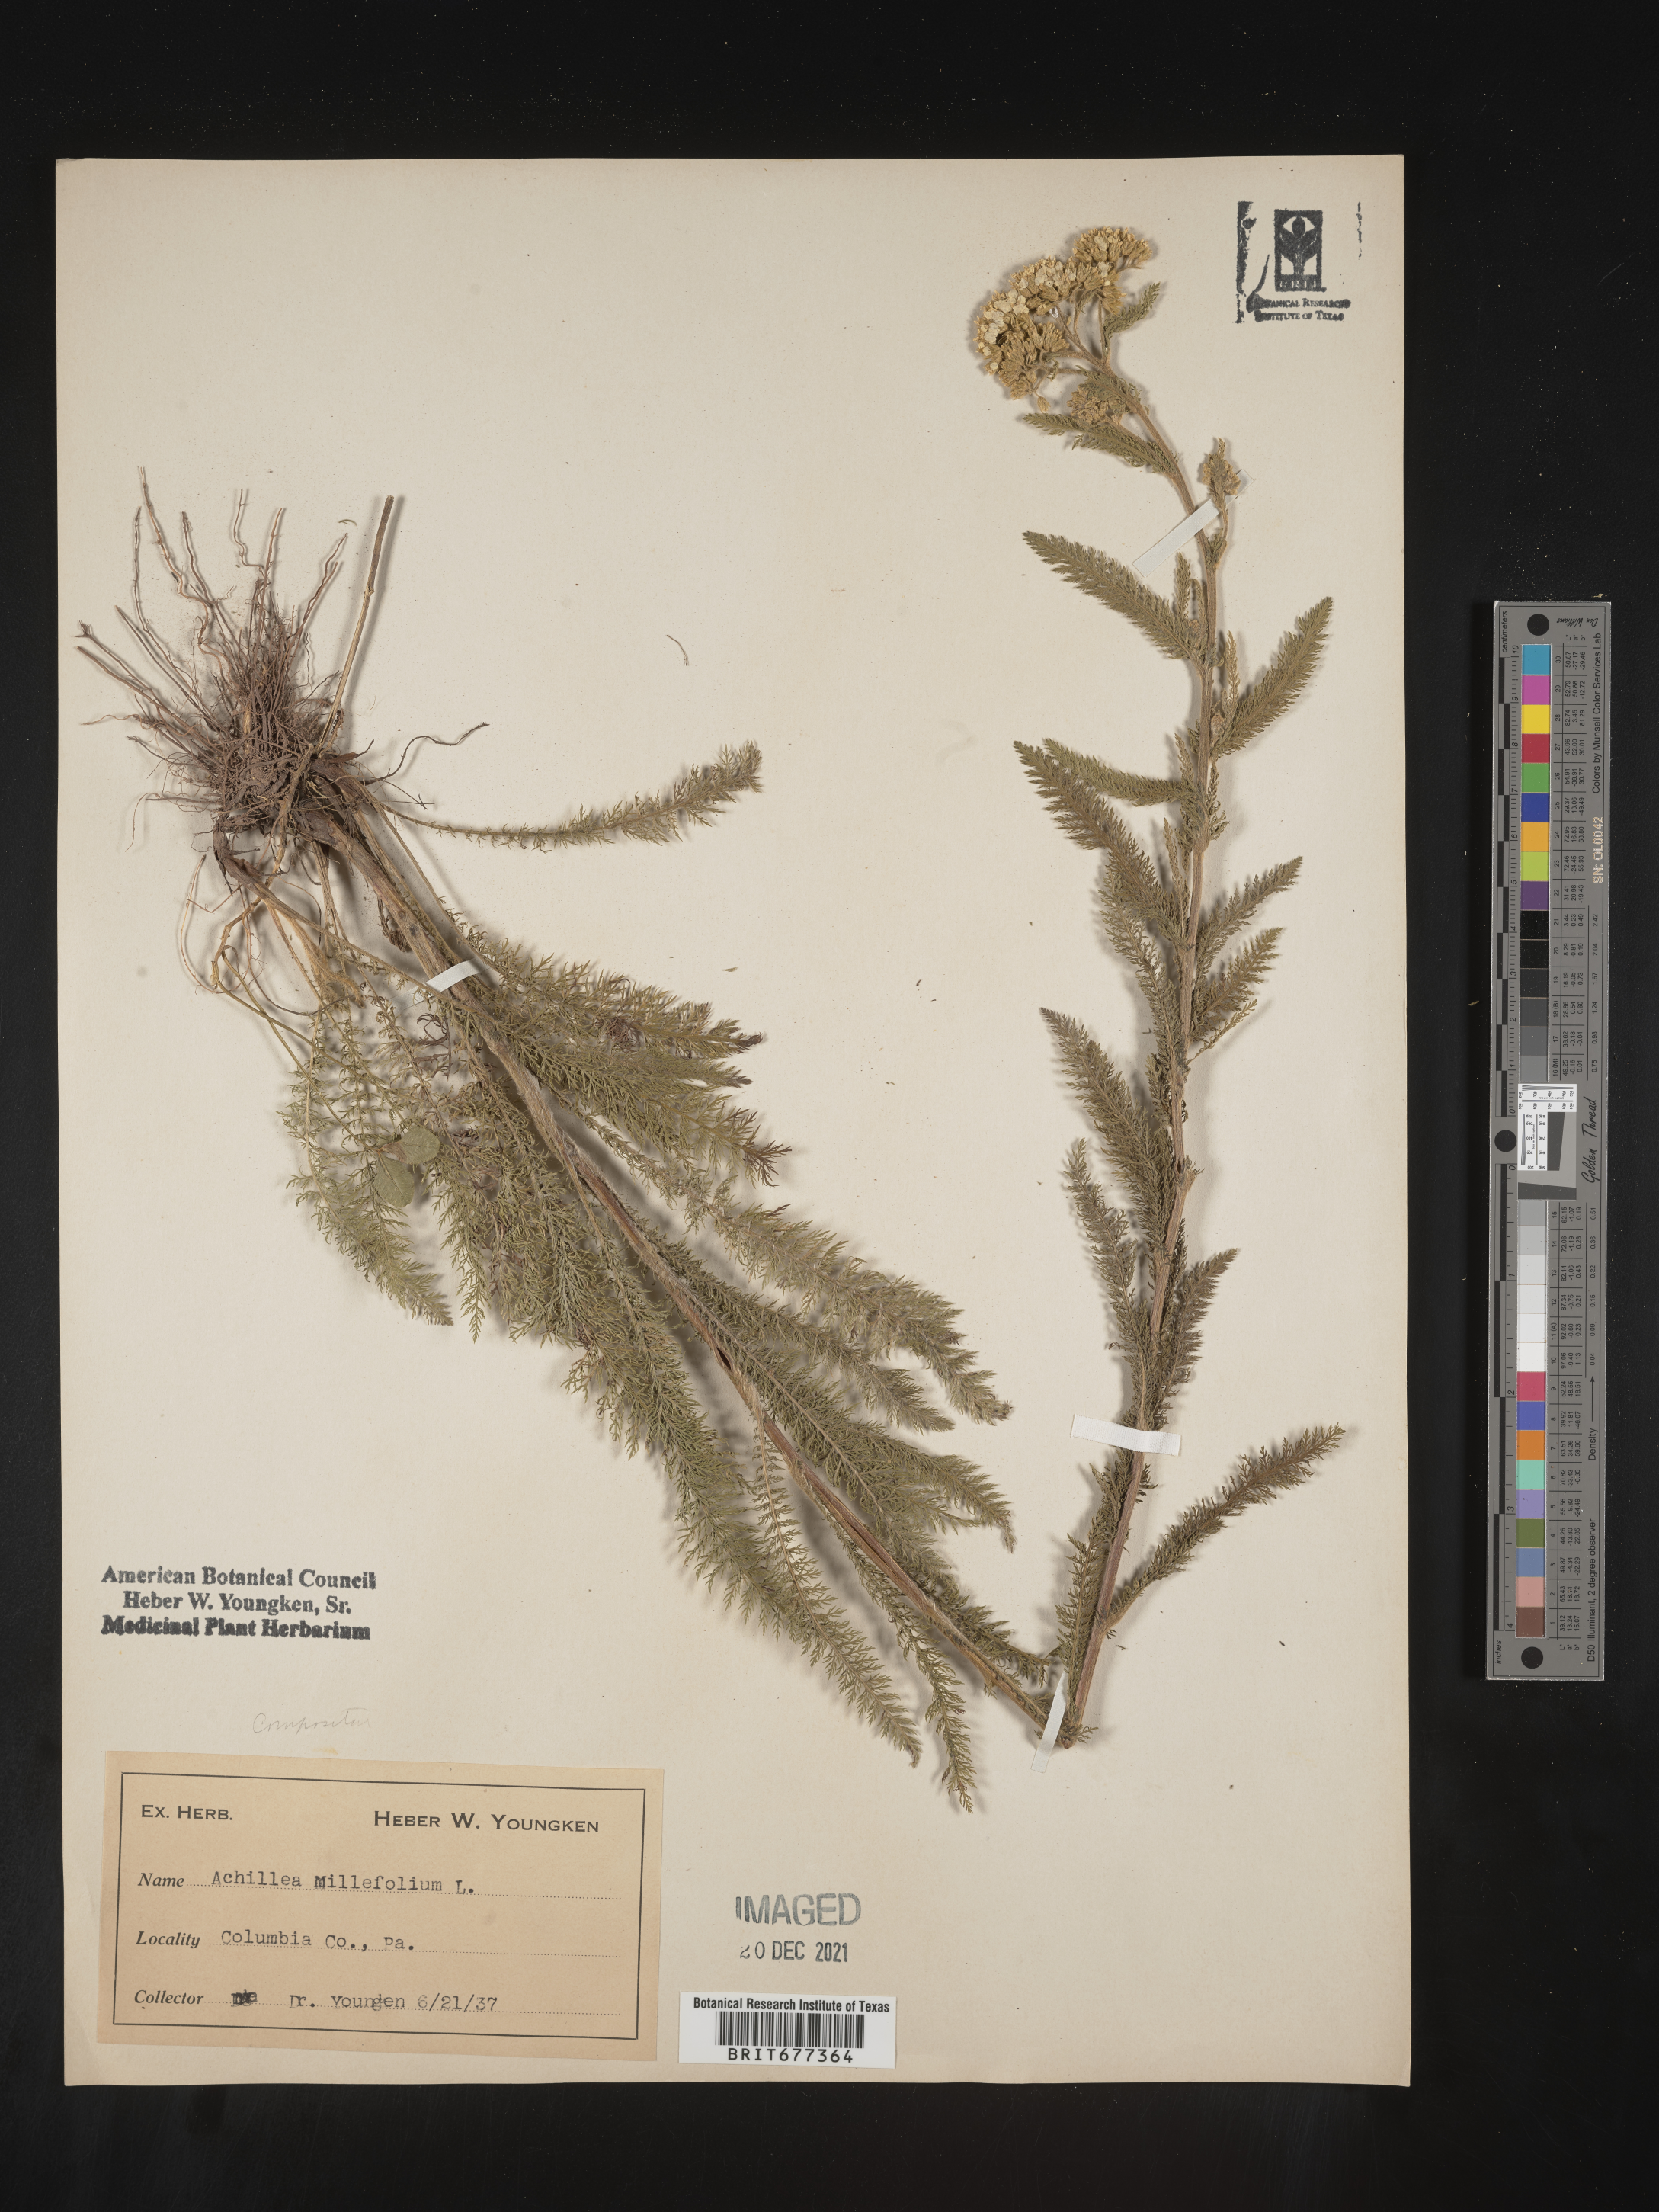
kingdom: Plantae
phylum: Tracheophyta
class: Magnoliopsida
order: Asterales
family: Asteraceae
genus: Achillea
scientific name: Achillea millefolium
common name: Yarrow
